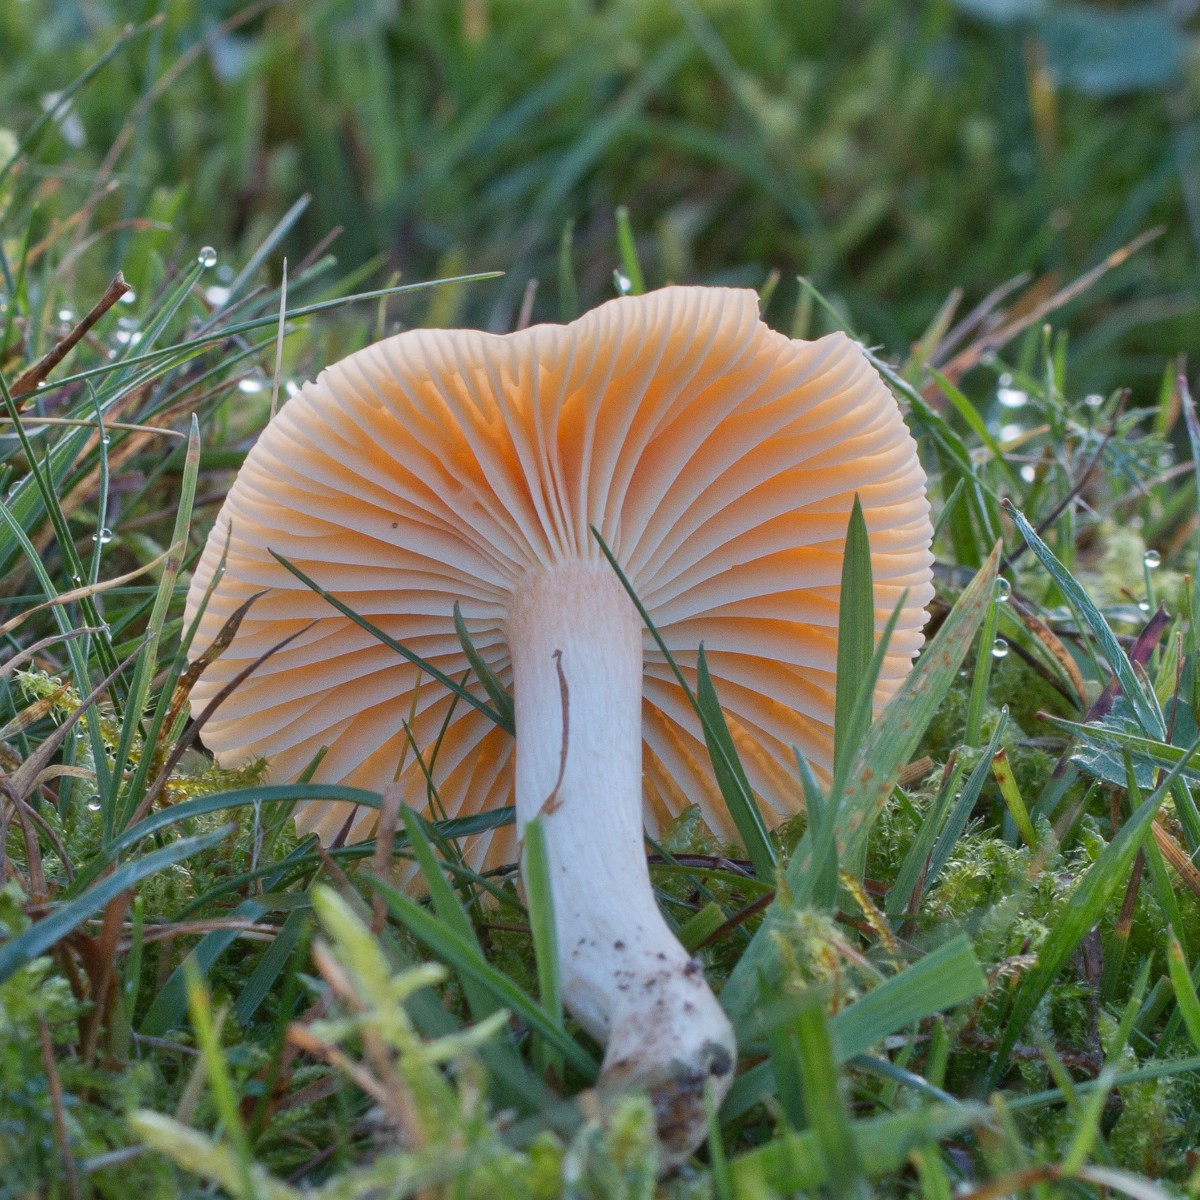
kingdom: Fungi
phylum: Basidiomycota
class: Agaricomycetes
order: Agaricales
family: Hygrophoraceae
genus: Cuphophyllus
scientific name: Cuphophyllus pratensis
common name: eng-vokshat
